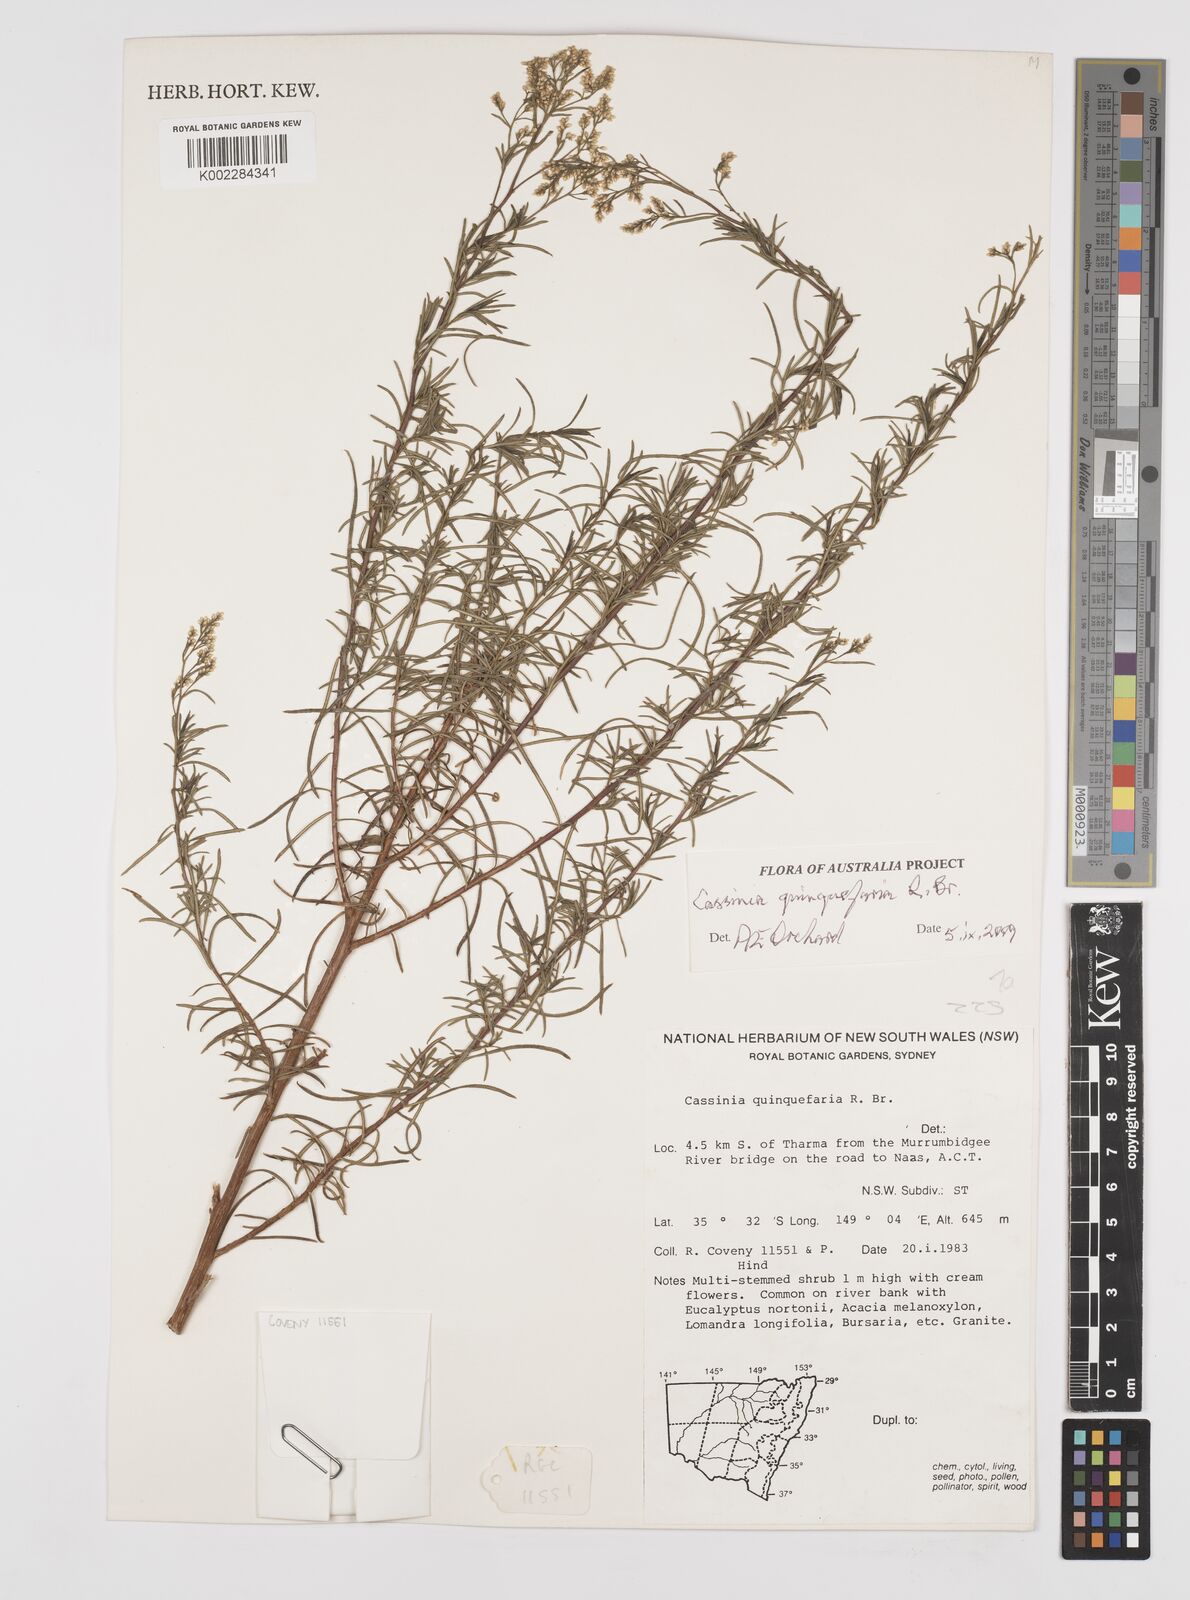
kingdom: Plantae
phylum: Tracheophyta
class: Magnoliopsida
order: Asterales
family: Asteraceae
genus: Cassinia
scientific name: Cassinia quinquefaria
